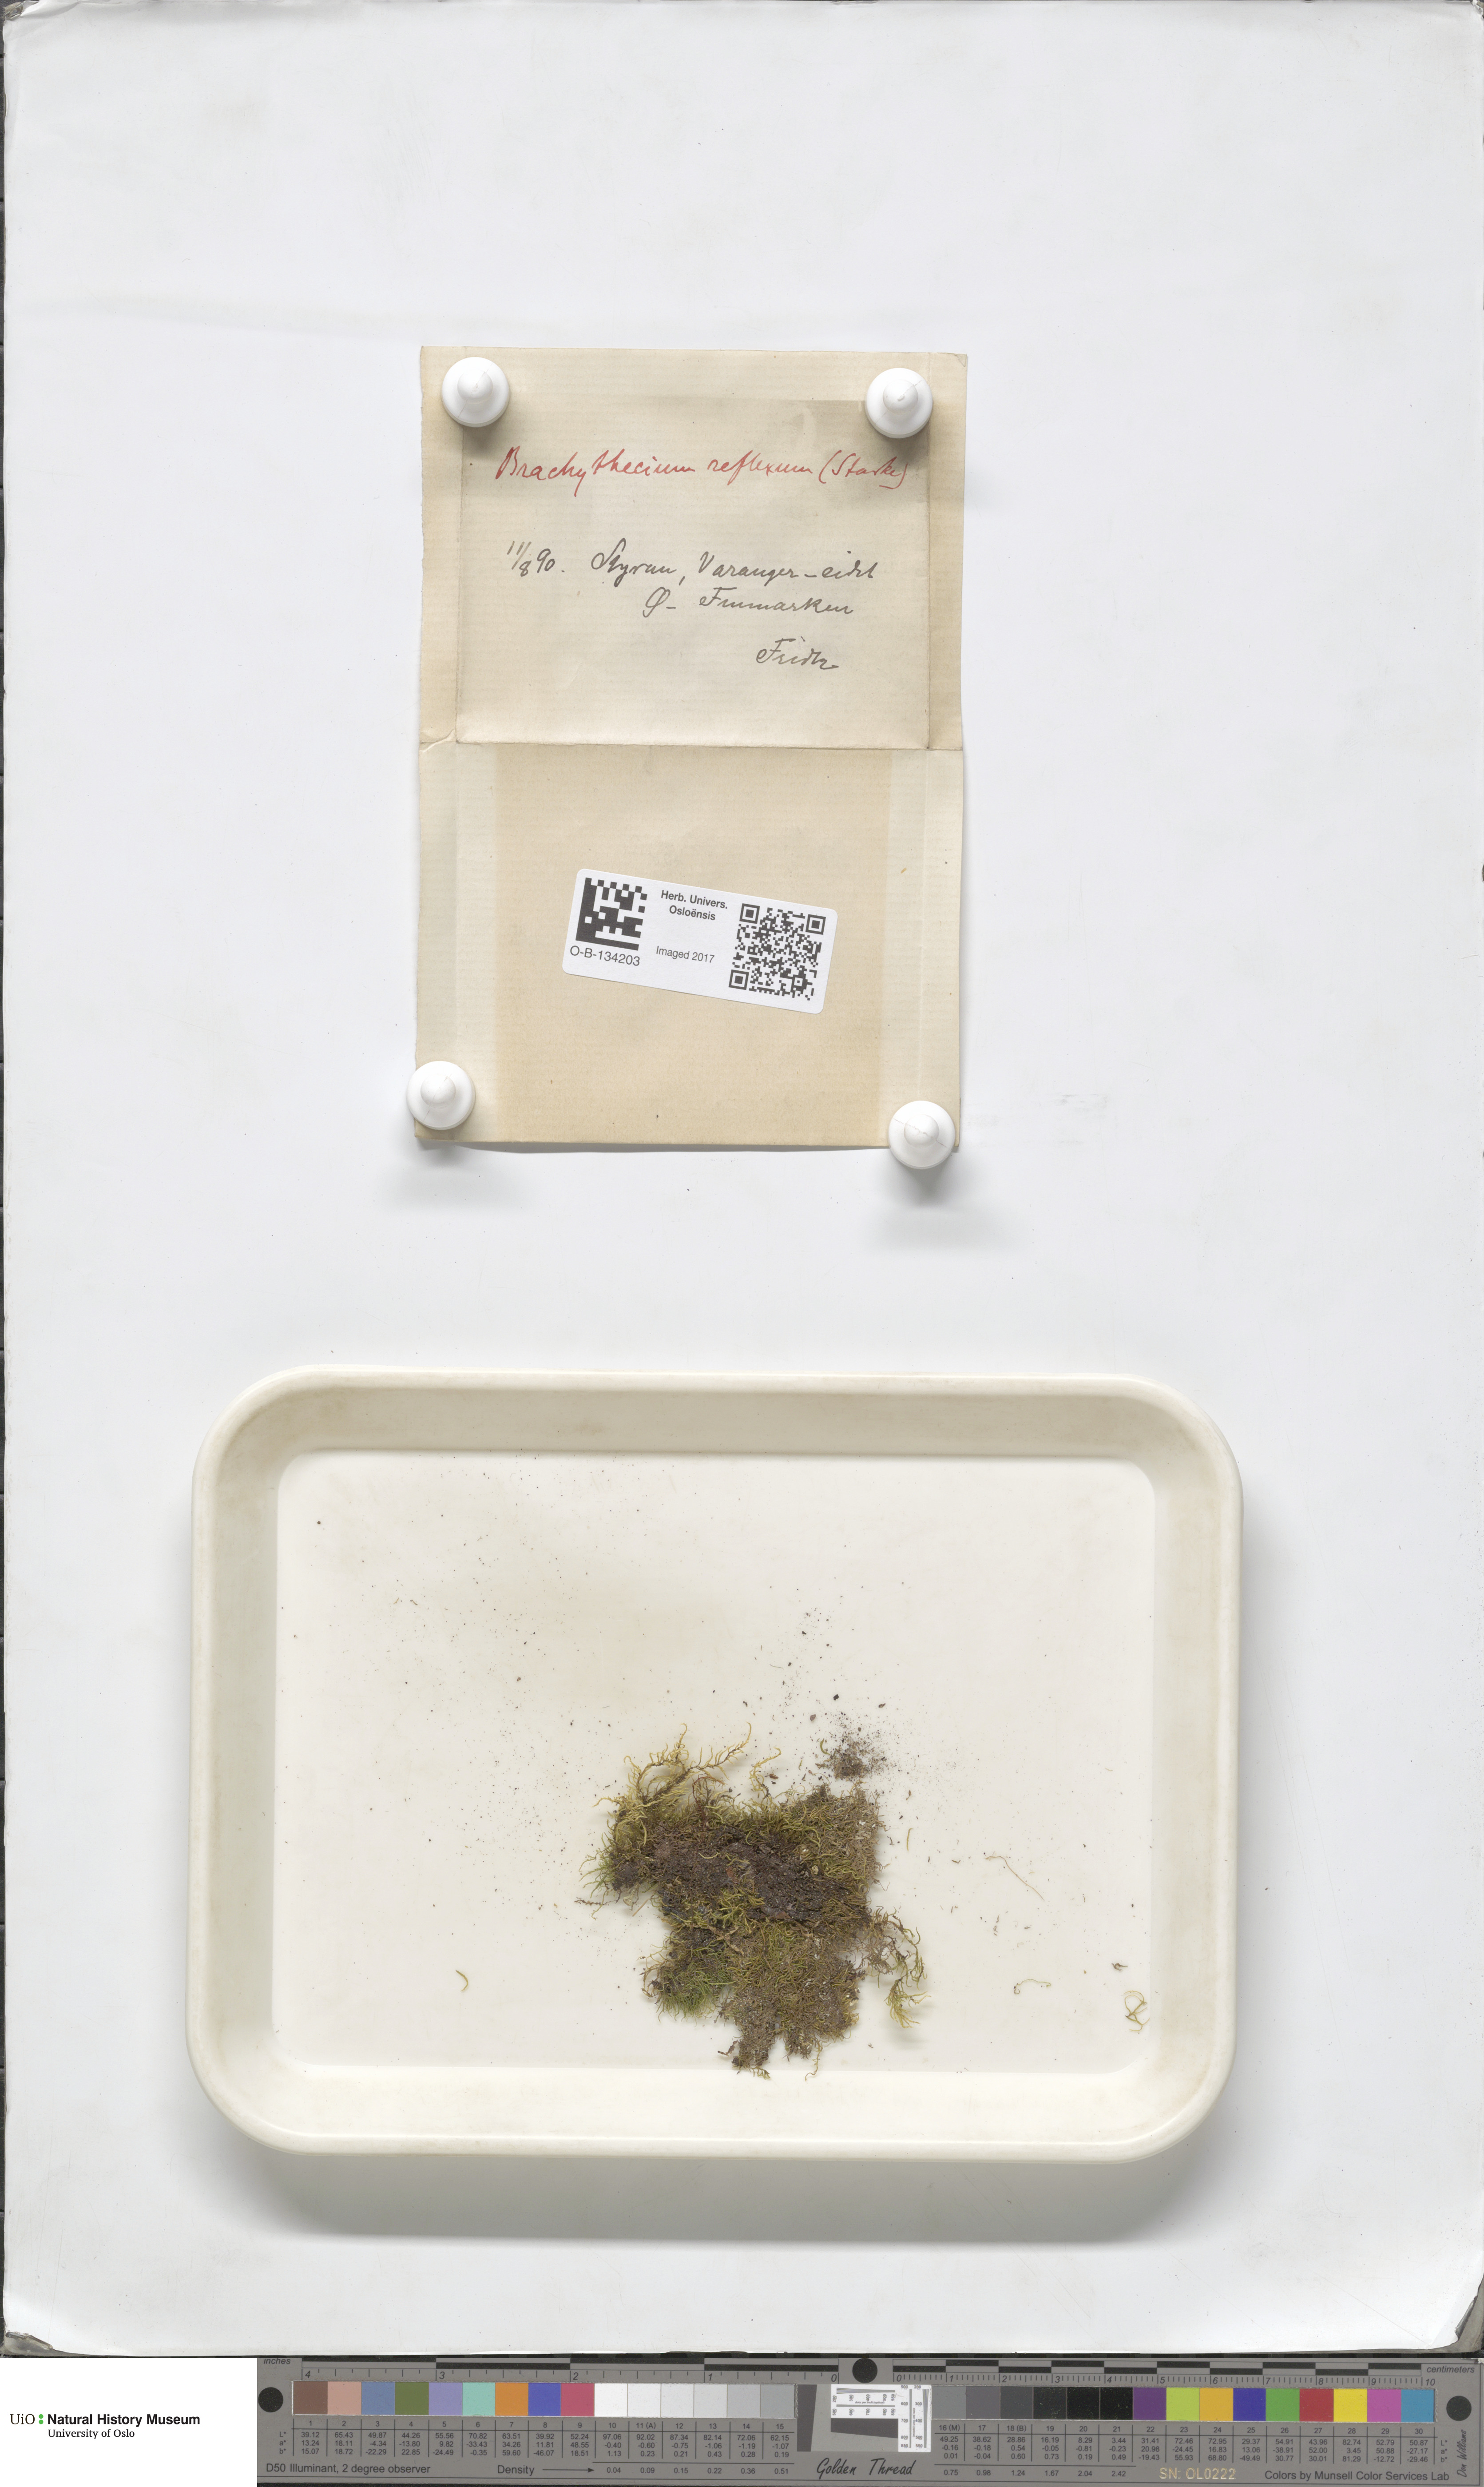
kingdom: Plantae
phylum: Bryophyta
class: Bryopsida
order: Hypnales
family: Brachytheciaceae
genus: Sciuro-hypnum
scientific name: Sciuro-hypnum reflexum
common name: Reflexed feather-moss
